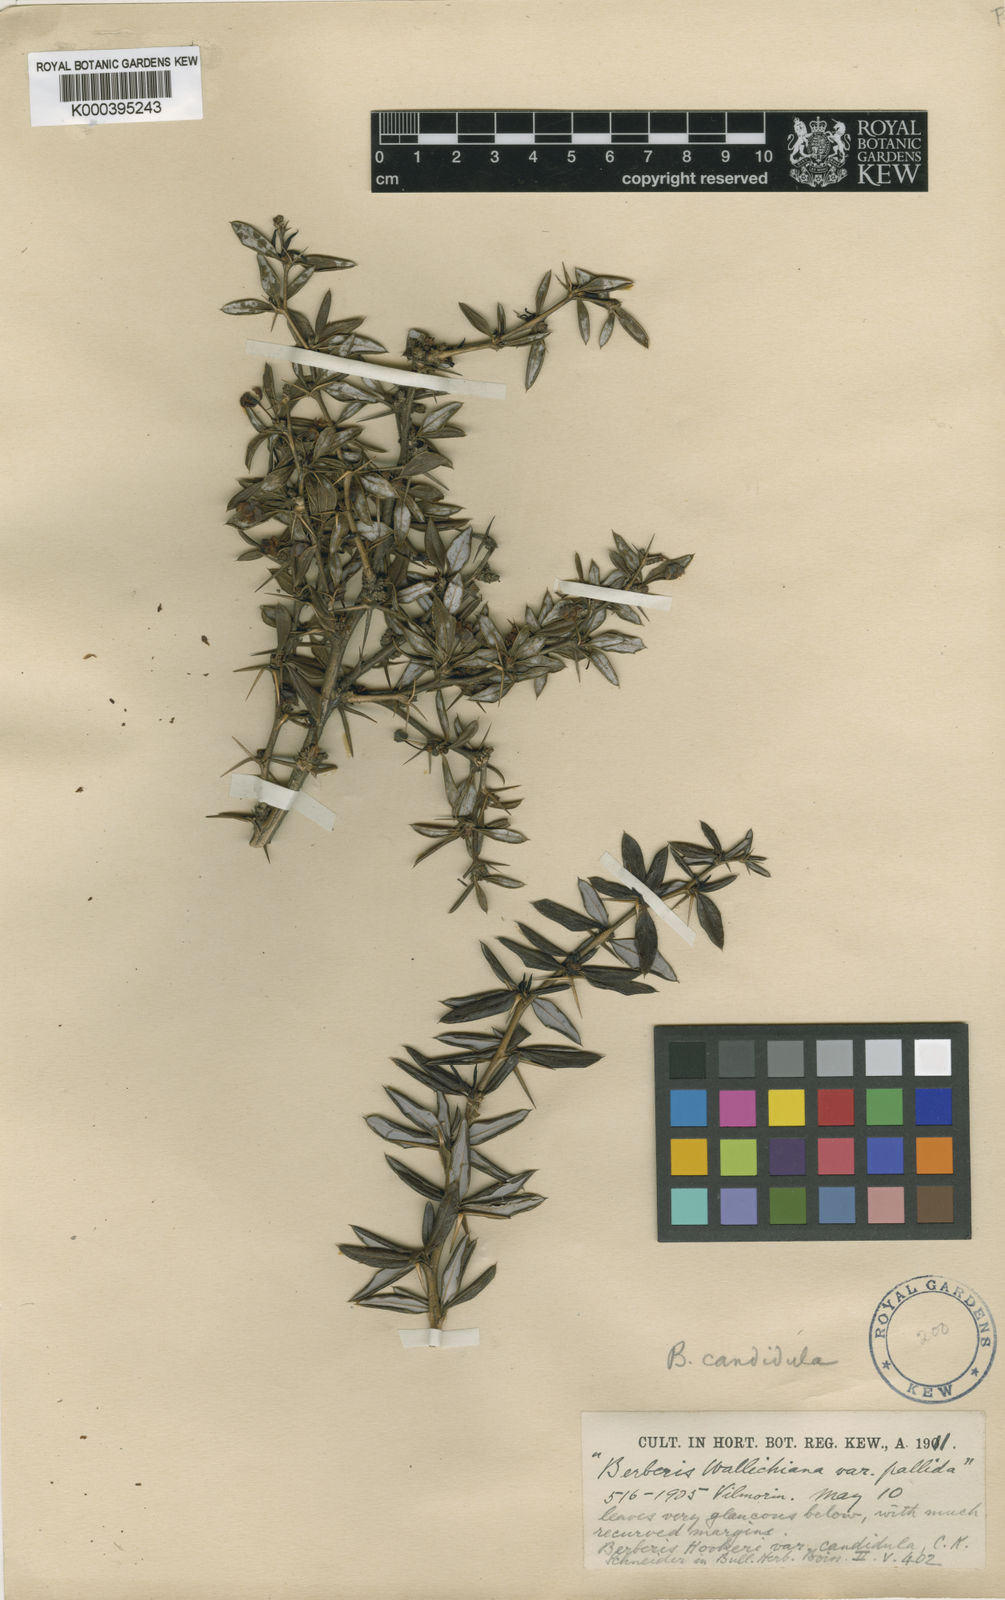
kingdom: Plantae
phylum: Tracheophyta
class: Magnoliopsida
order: Ranunculales
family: Berberidaceae
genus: Berberis
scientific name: Berberis candidula
